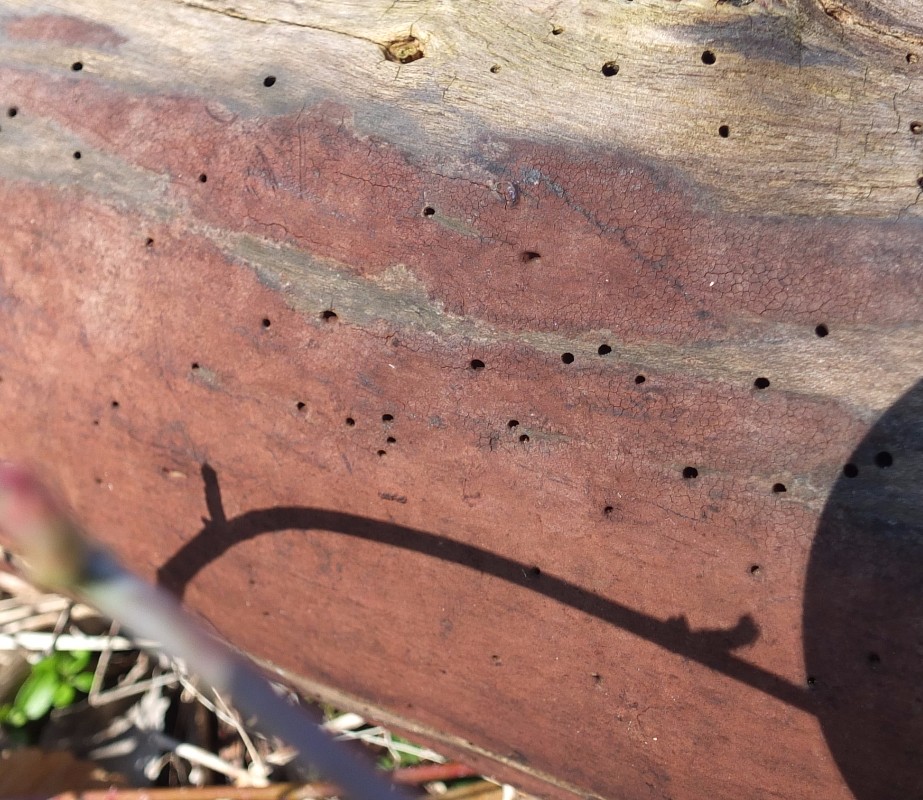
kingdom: Fungi
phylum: Ascomycota
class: Sordariomycetes
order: Xylariales
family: Hypoxylaceae
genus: Hypoxylon
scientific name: Hypoxylon macrocarpum
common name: skorpe-kulbær
